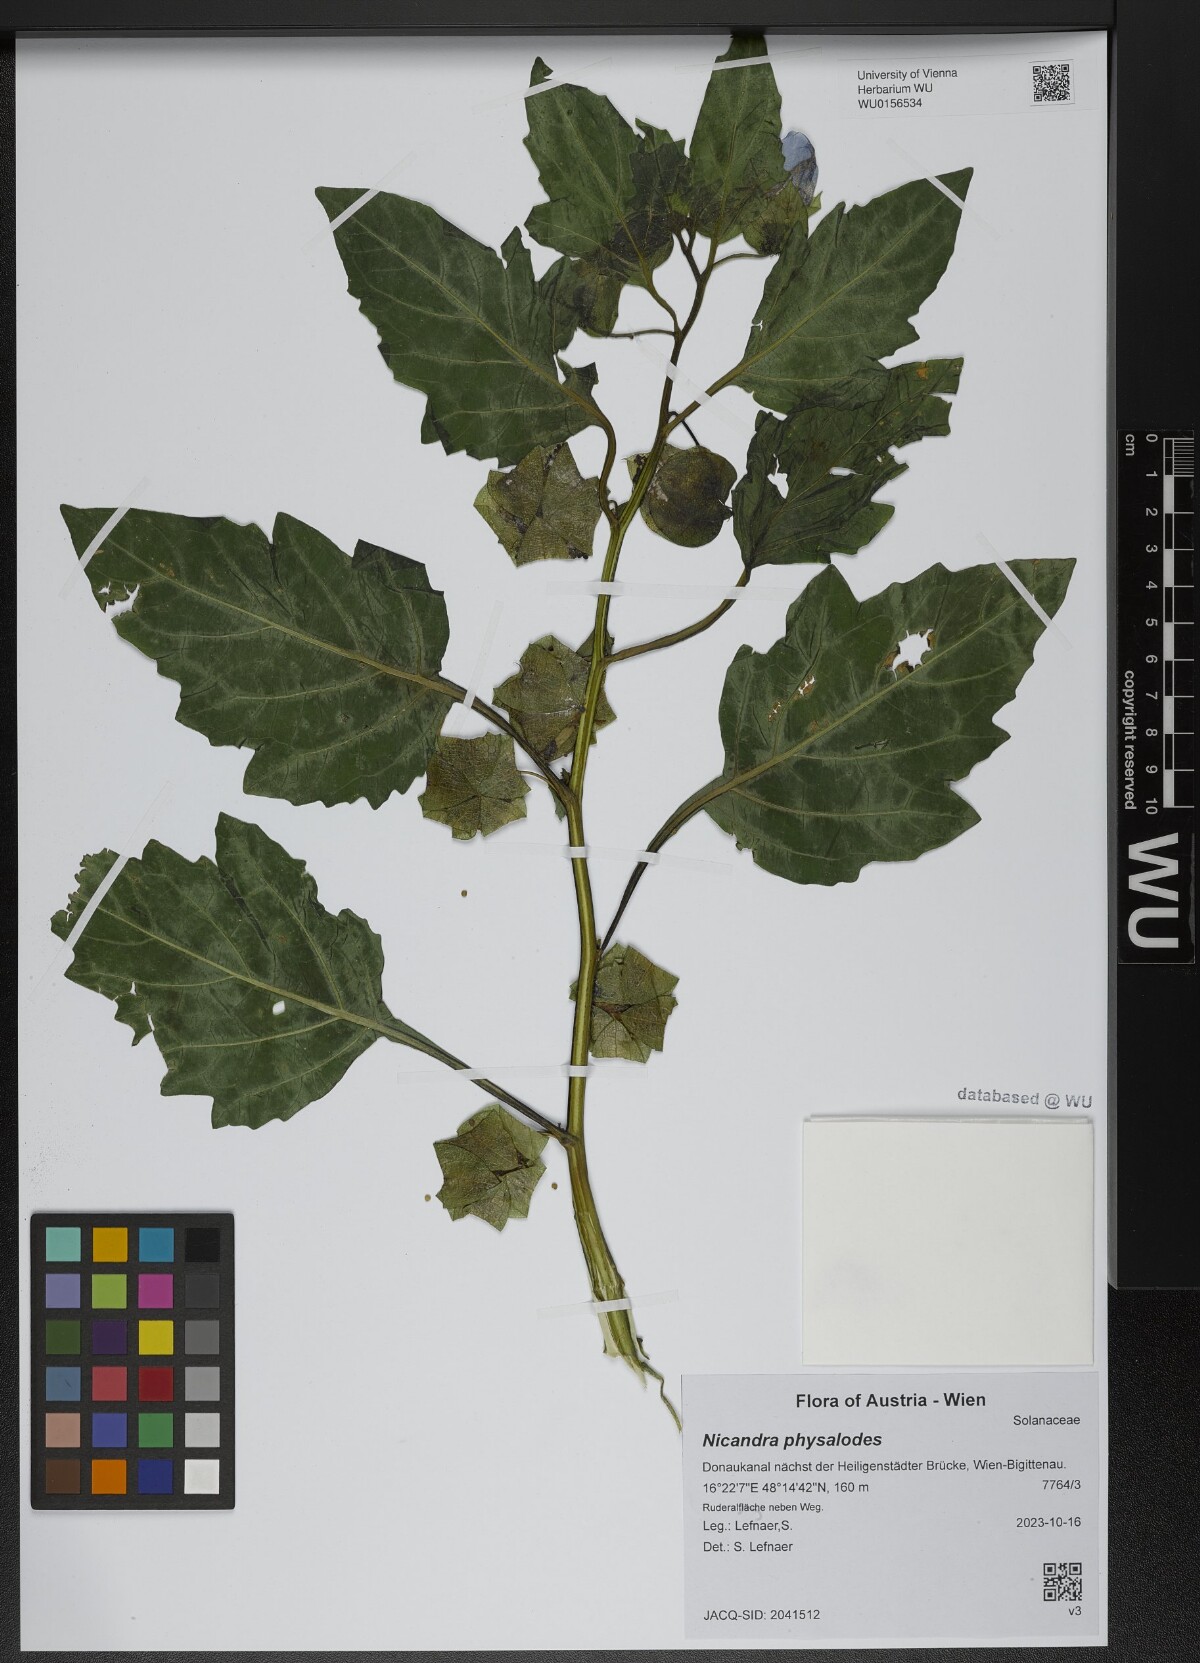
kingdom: Plantae
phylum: Tracheophyta
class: Magnoliopsida
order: Solanales
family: Solanaceae
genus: Nicandra
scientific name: Nicandra physalodes
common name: Apple-of-peru
